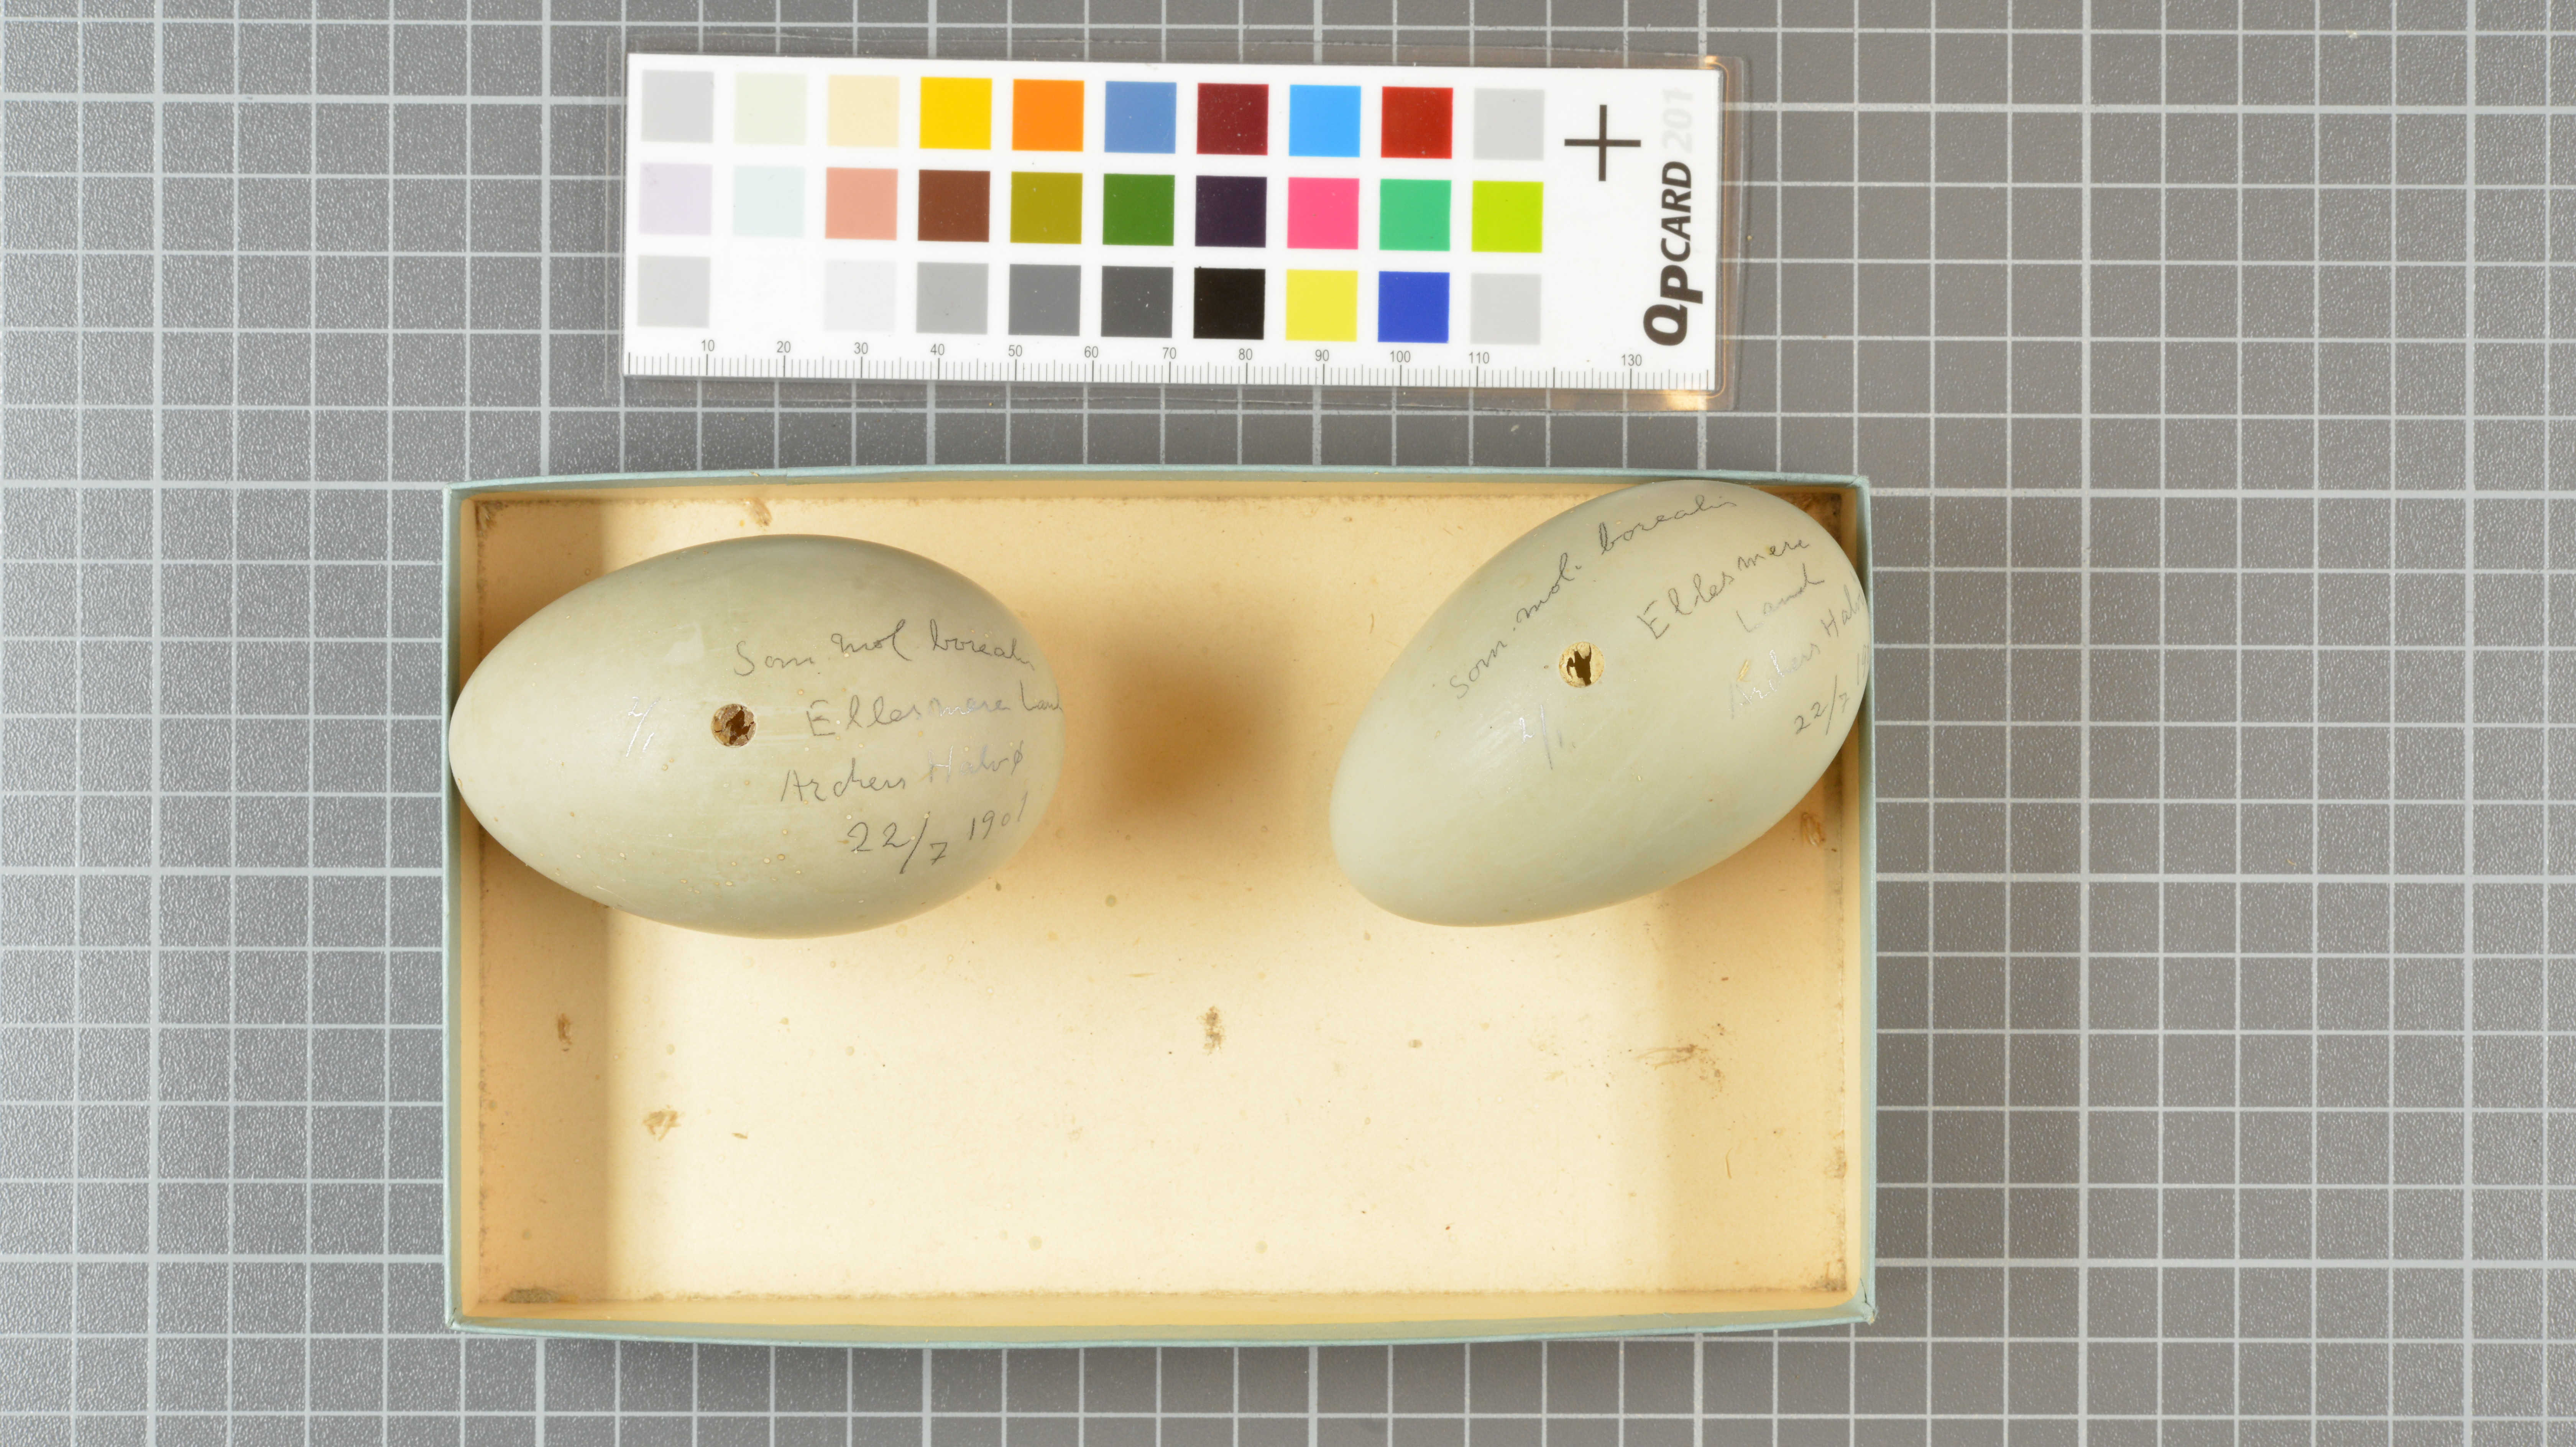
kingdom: Animalia
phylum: Chordata
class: Aves
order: Anseriformes
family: Anatidae
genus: Somateria
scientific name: Somateria mollissima
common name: Common eider
